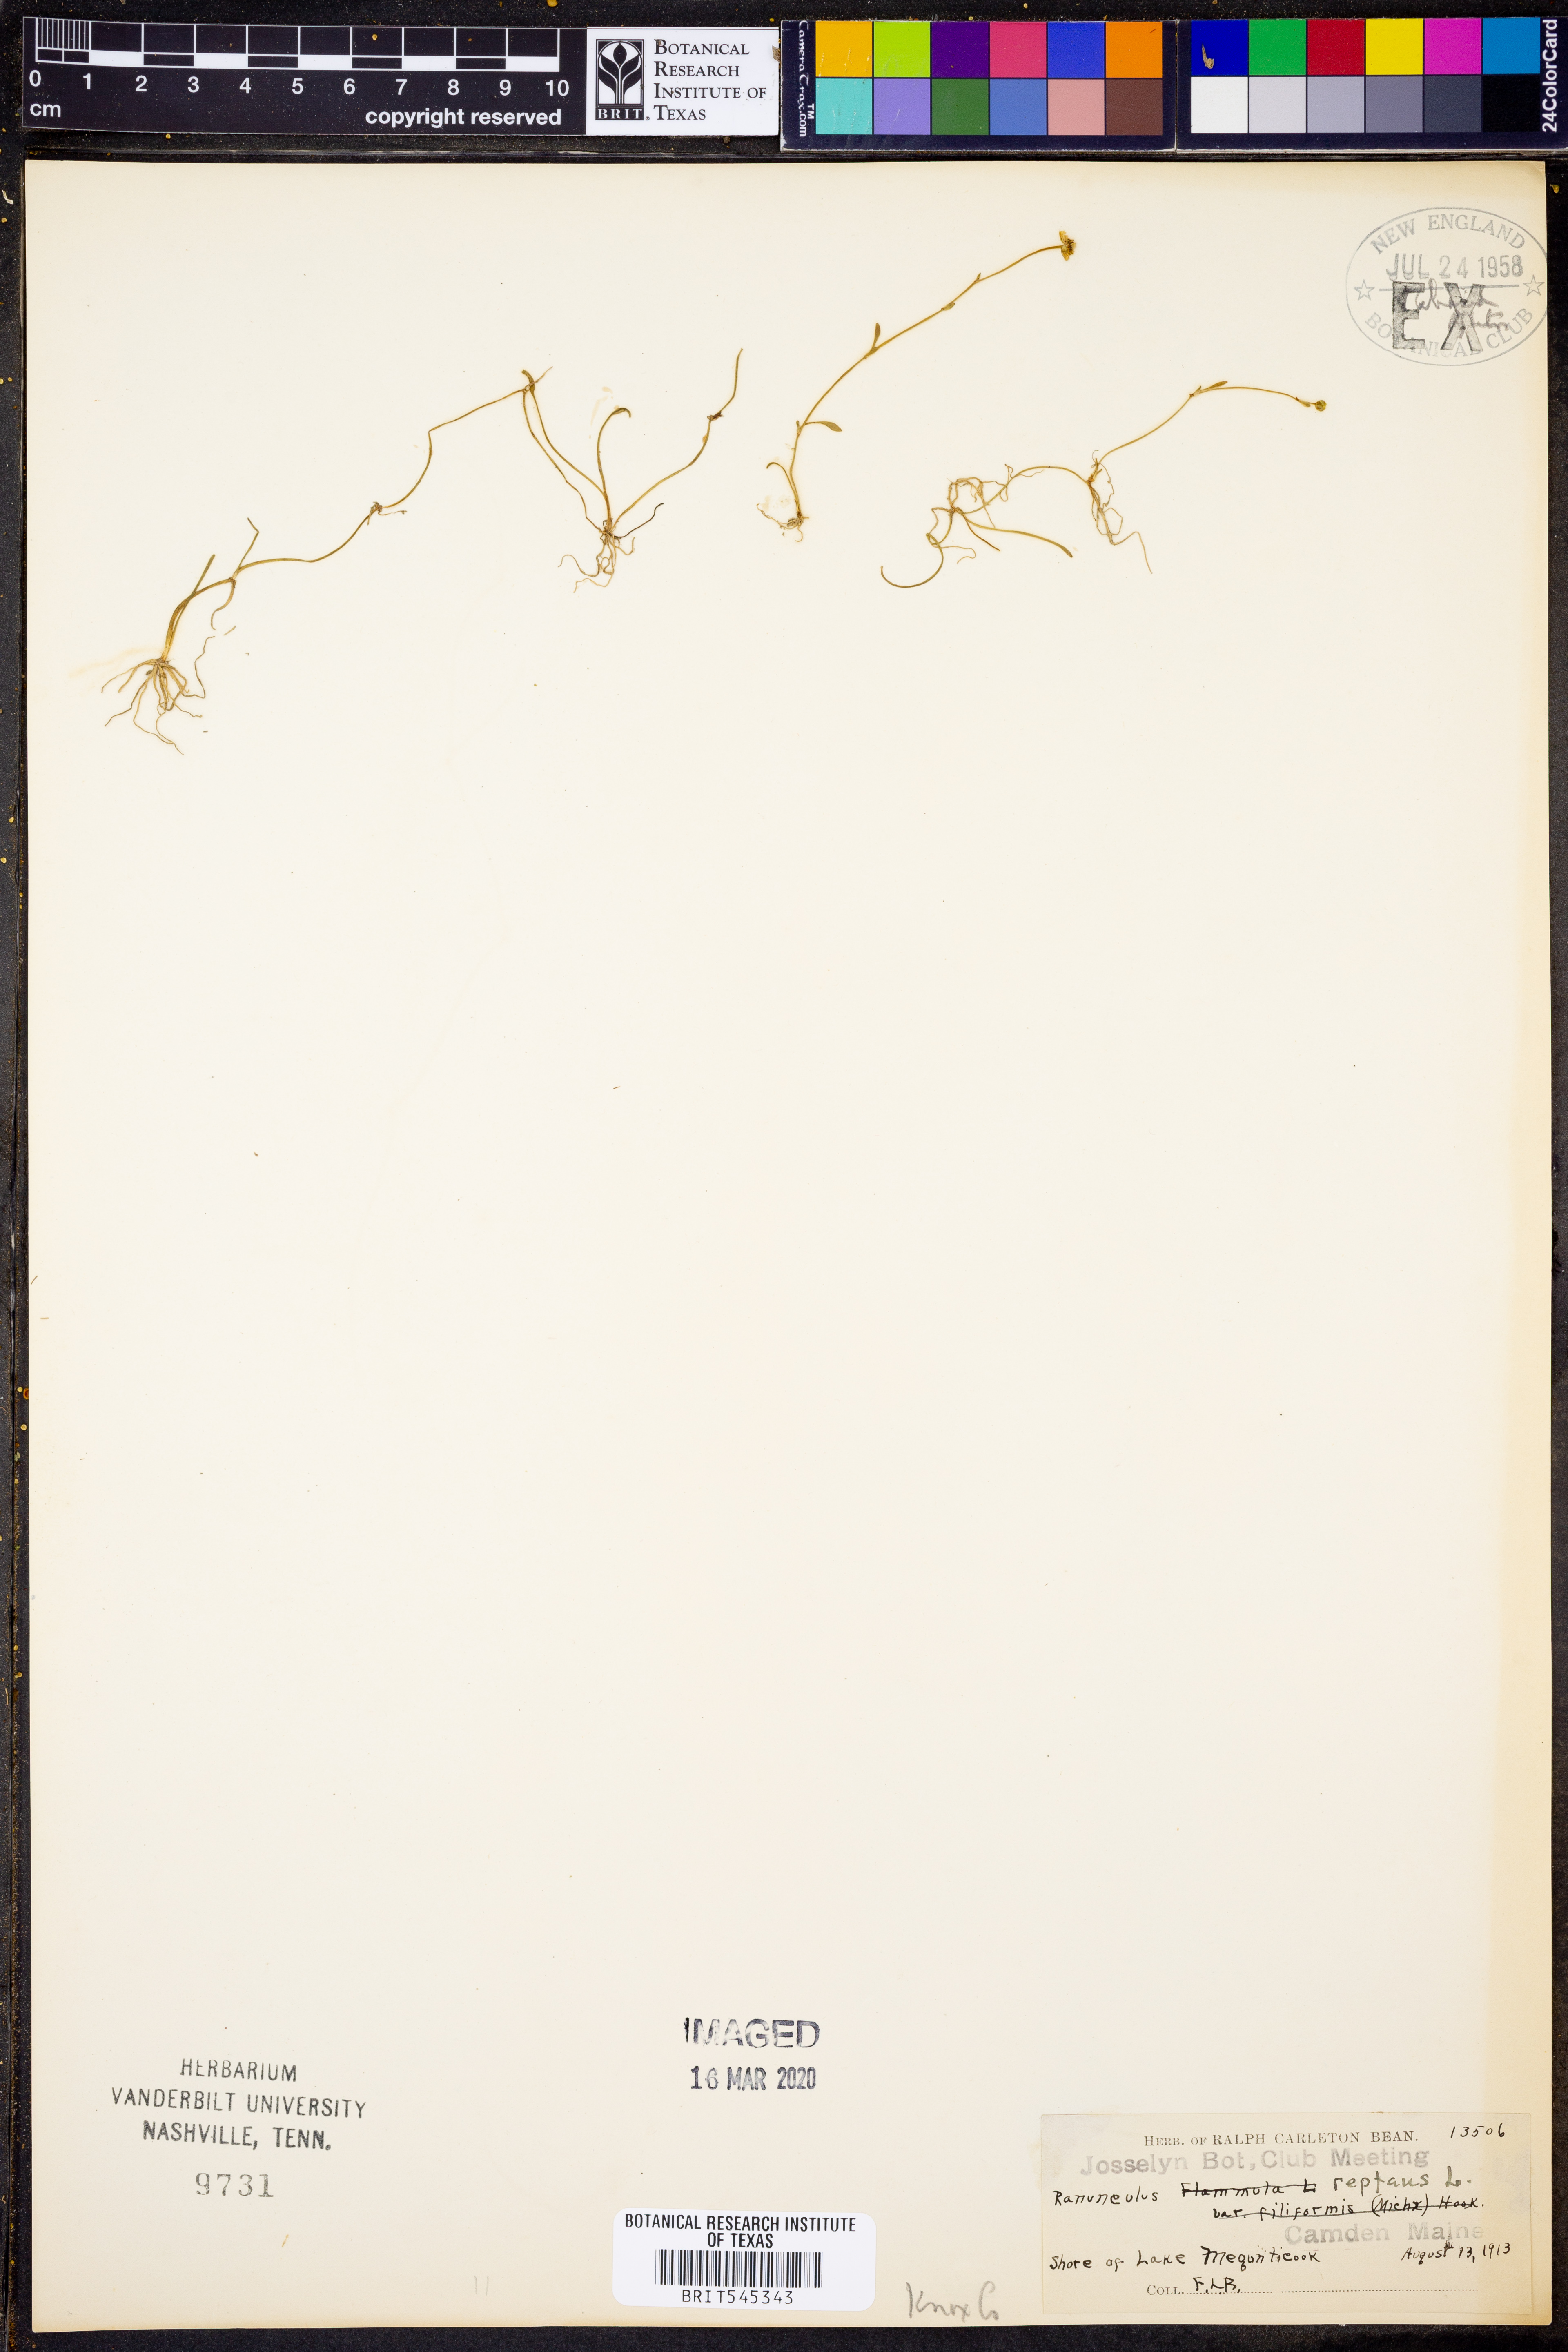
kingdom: Plantae
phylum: Tracheophyta
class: Magnoliopsida
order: Ranunculales
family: Ranunculaceae
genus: Ranunculus
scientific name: Ranunculus reptans
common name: Creeping spearwort
